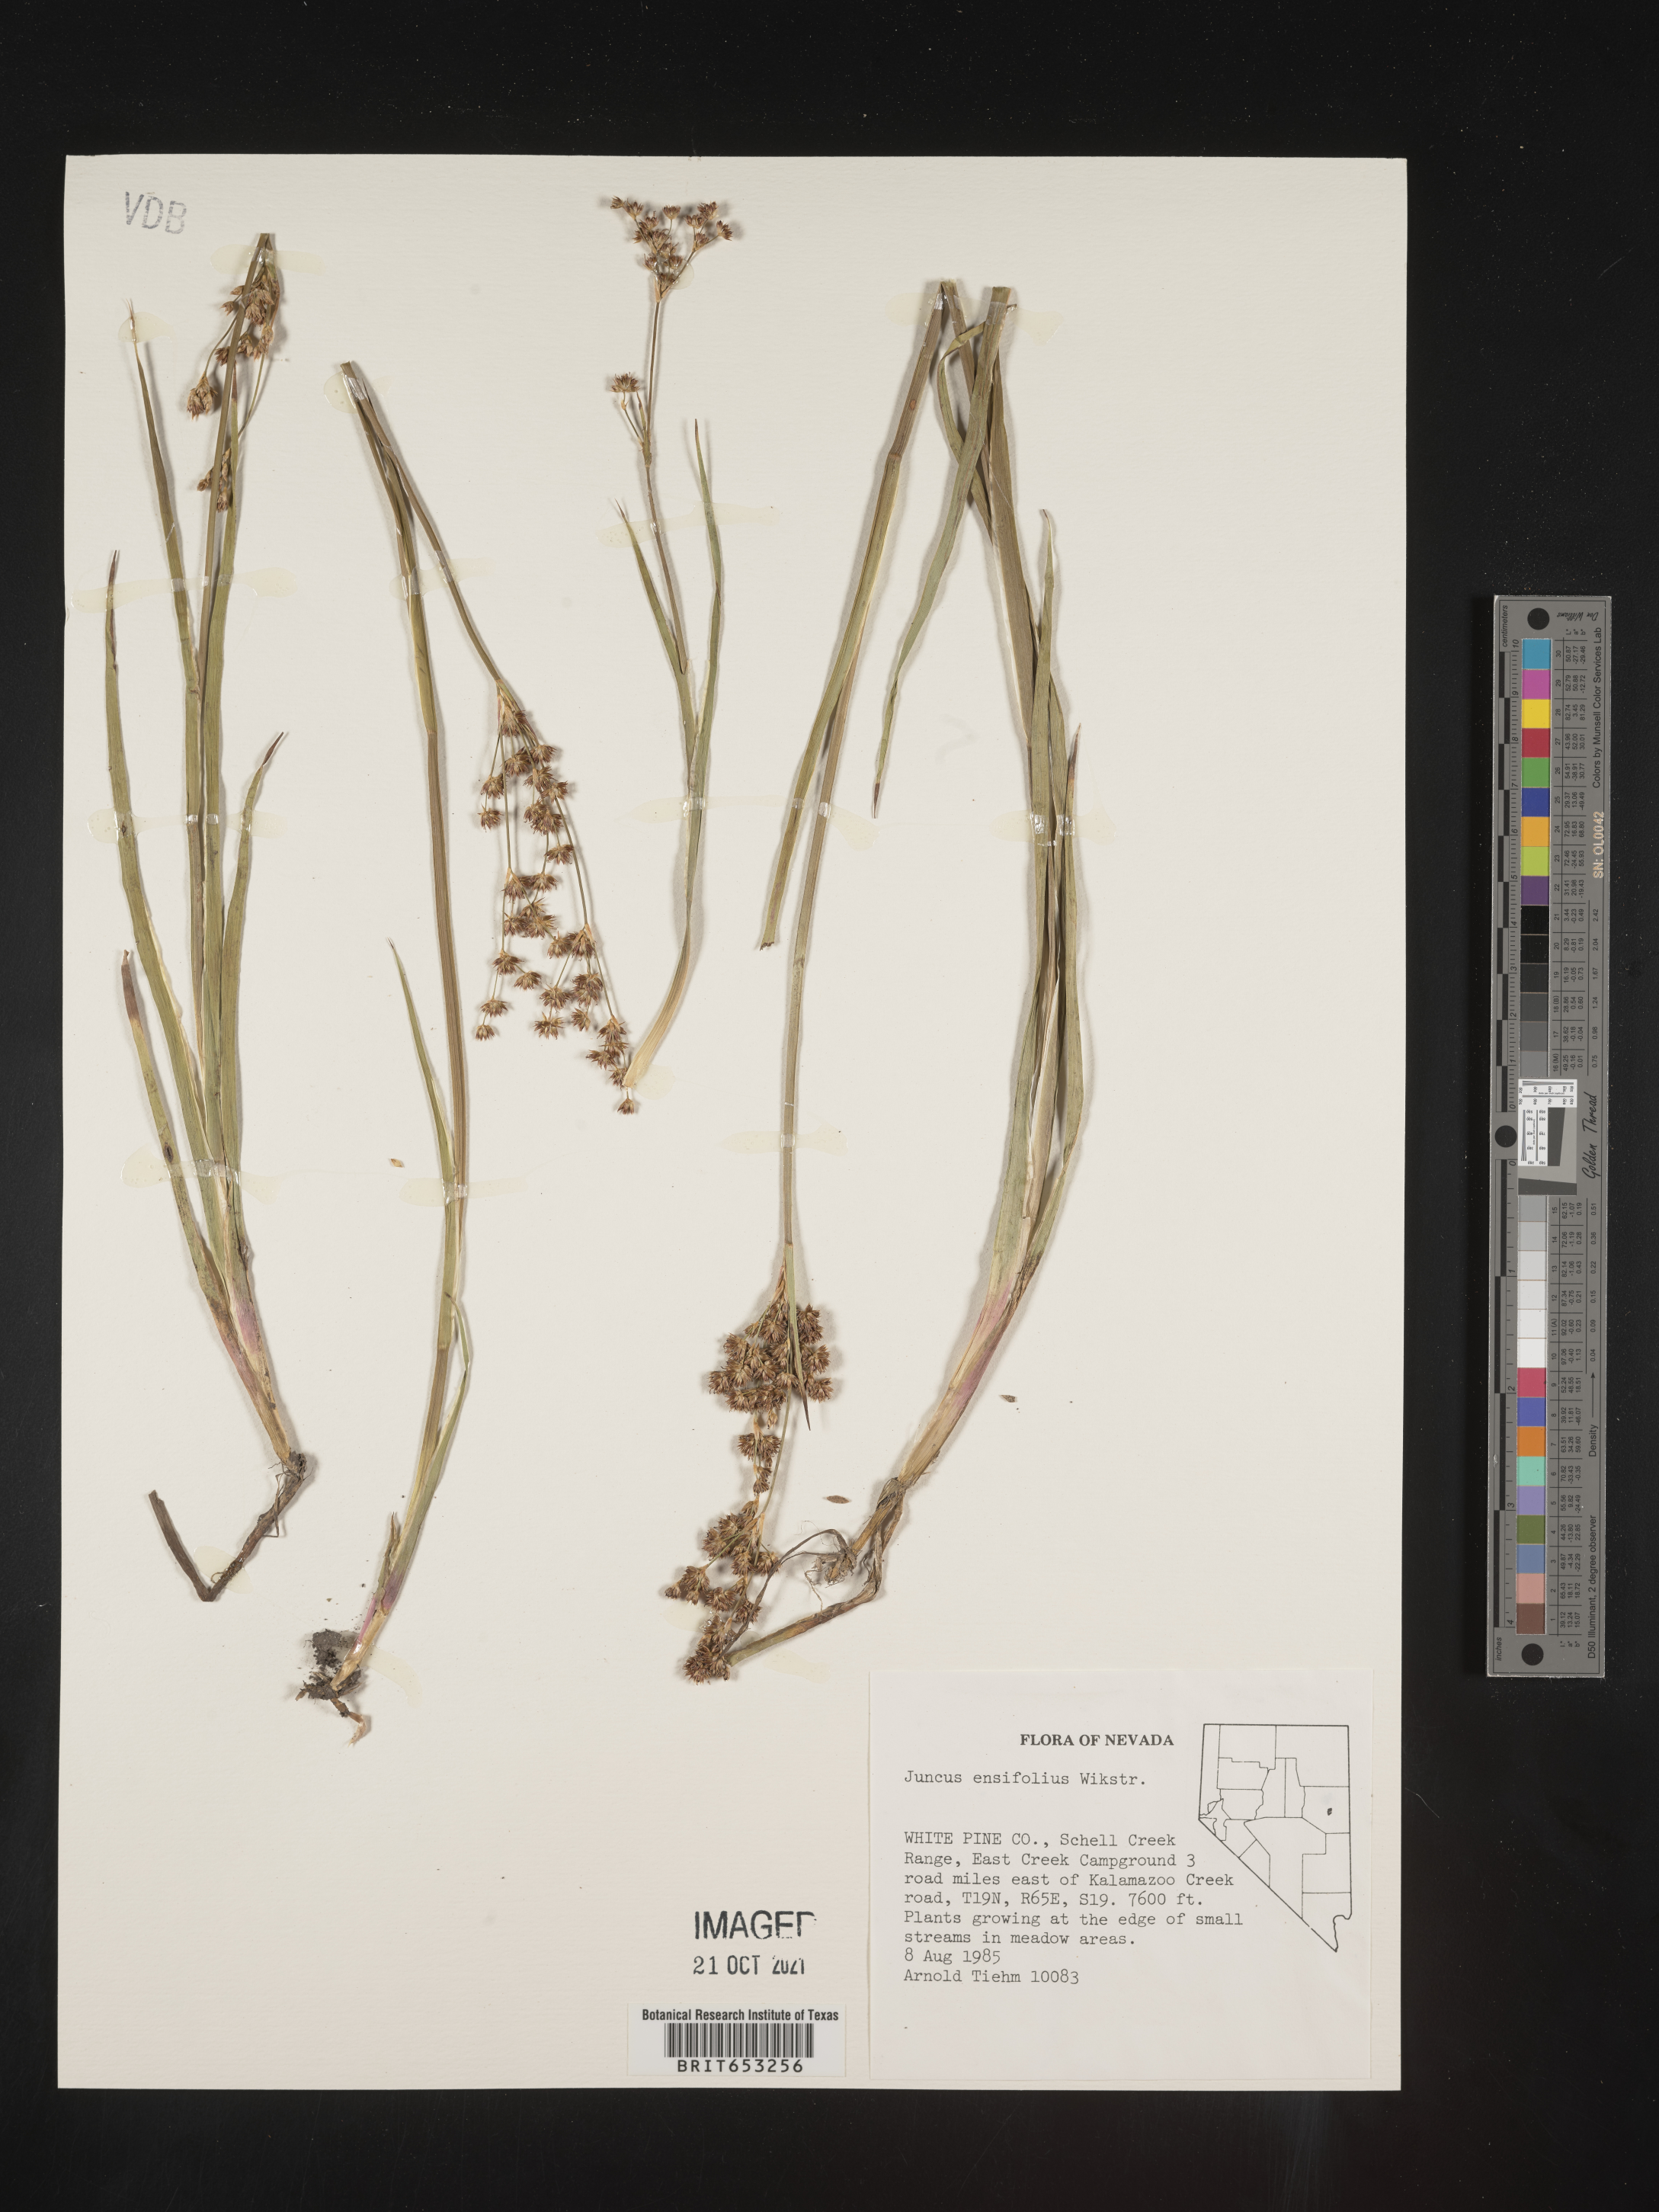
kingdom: Plantae
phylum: Tracheophyta
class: Liliopsida
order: Poales
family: Juncaceae
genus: Juncus
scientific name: Juncus ensifolius
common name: Sword-leaved rush
